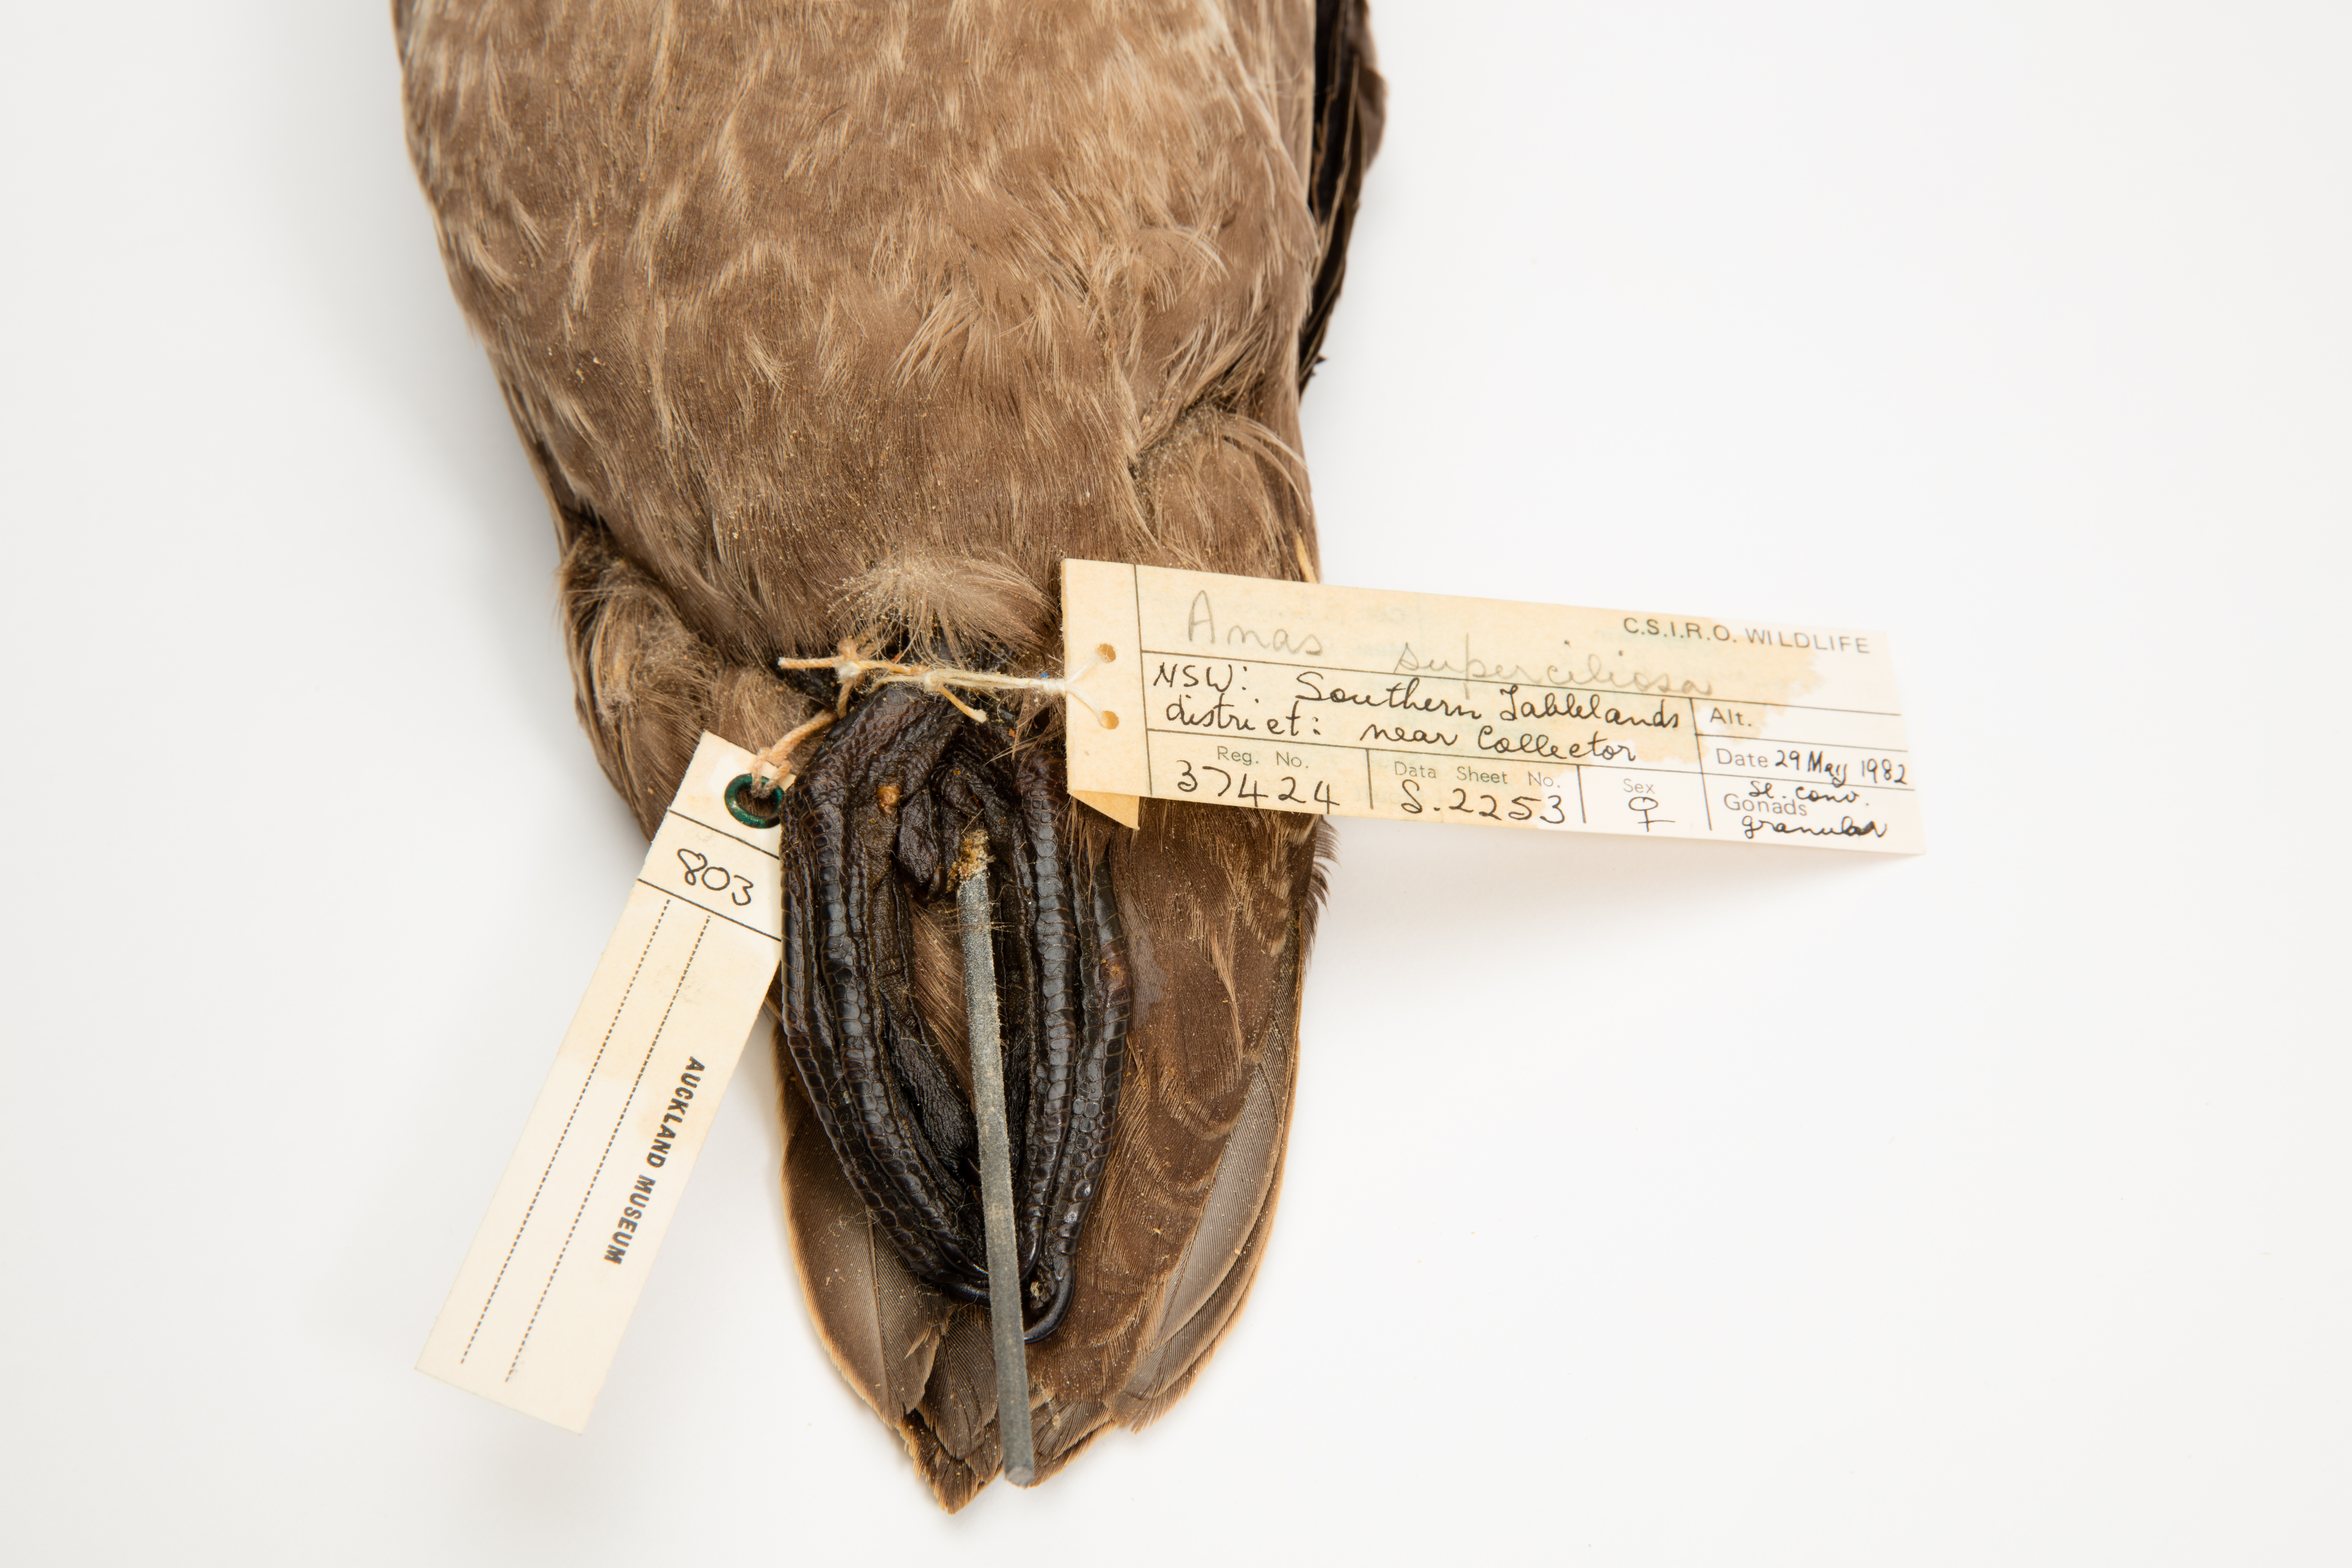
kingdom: Animalia
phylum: Chordata
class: Aves
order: Anseriformes
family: Anatidae
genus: Anas
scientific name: Anas superciliosa
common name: Pacific black duck
